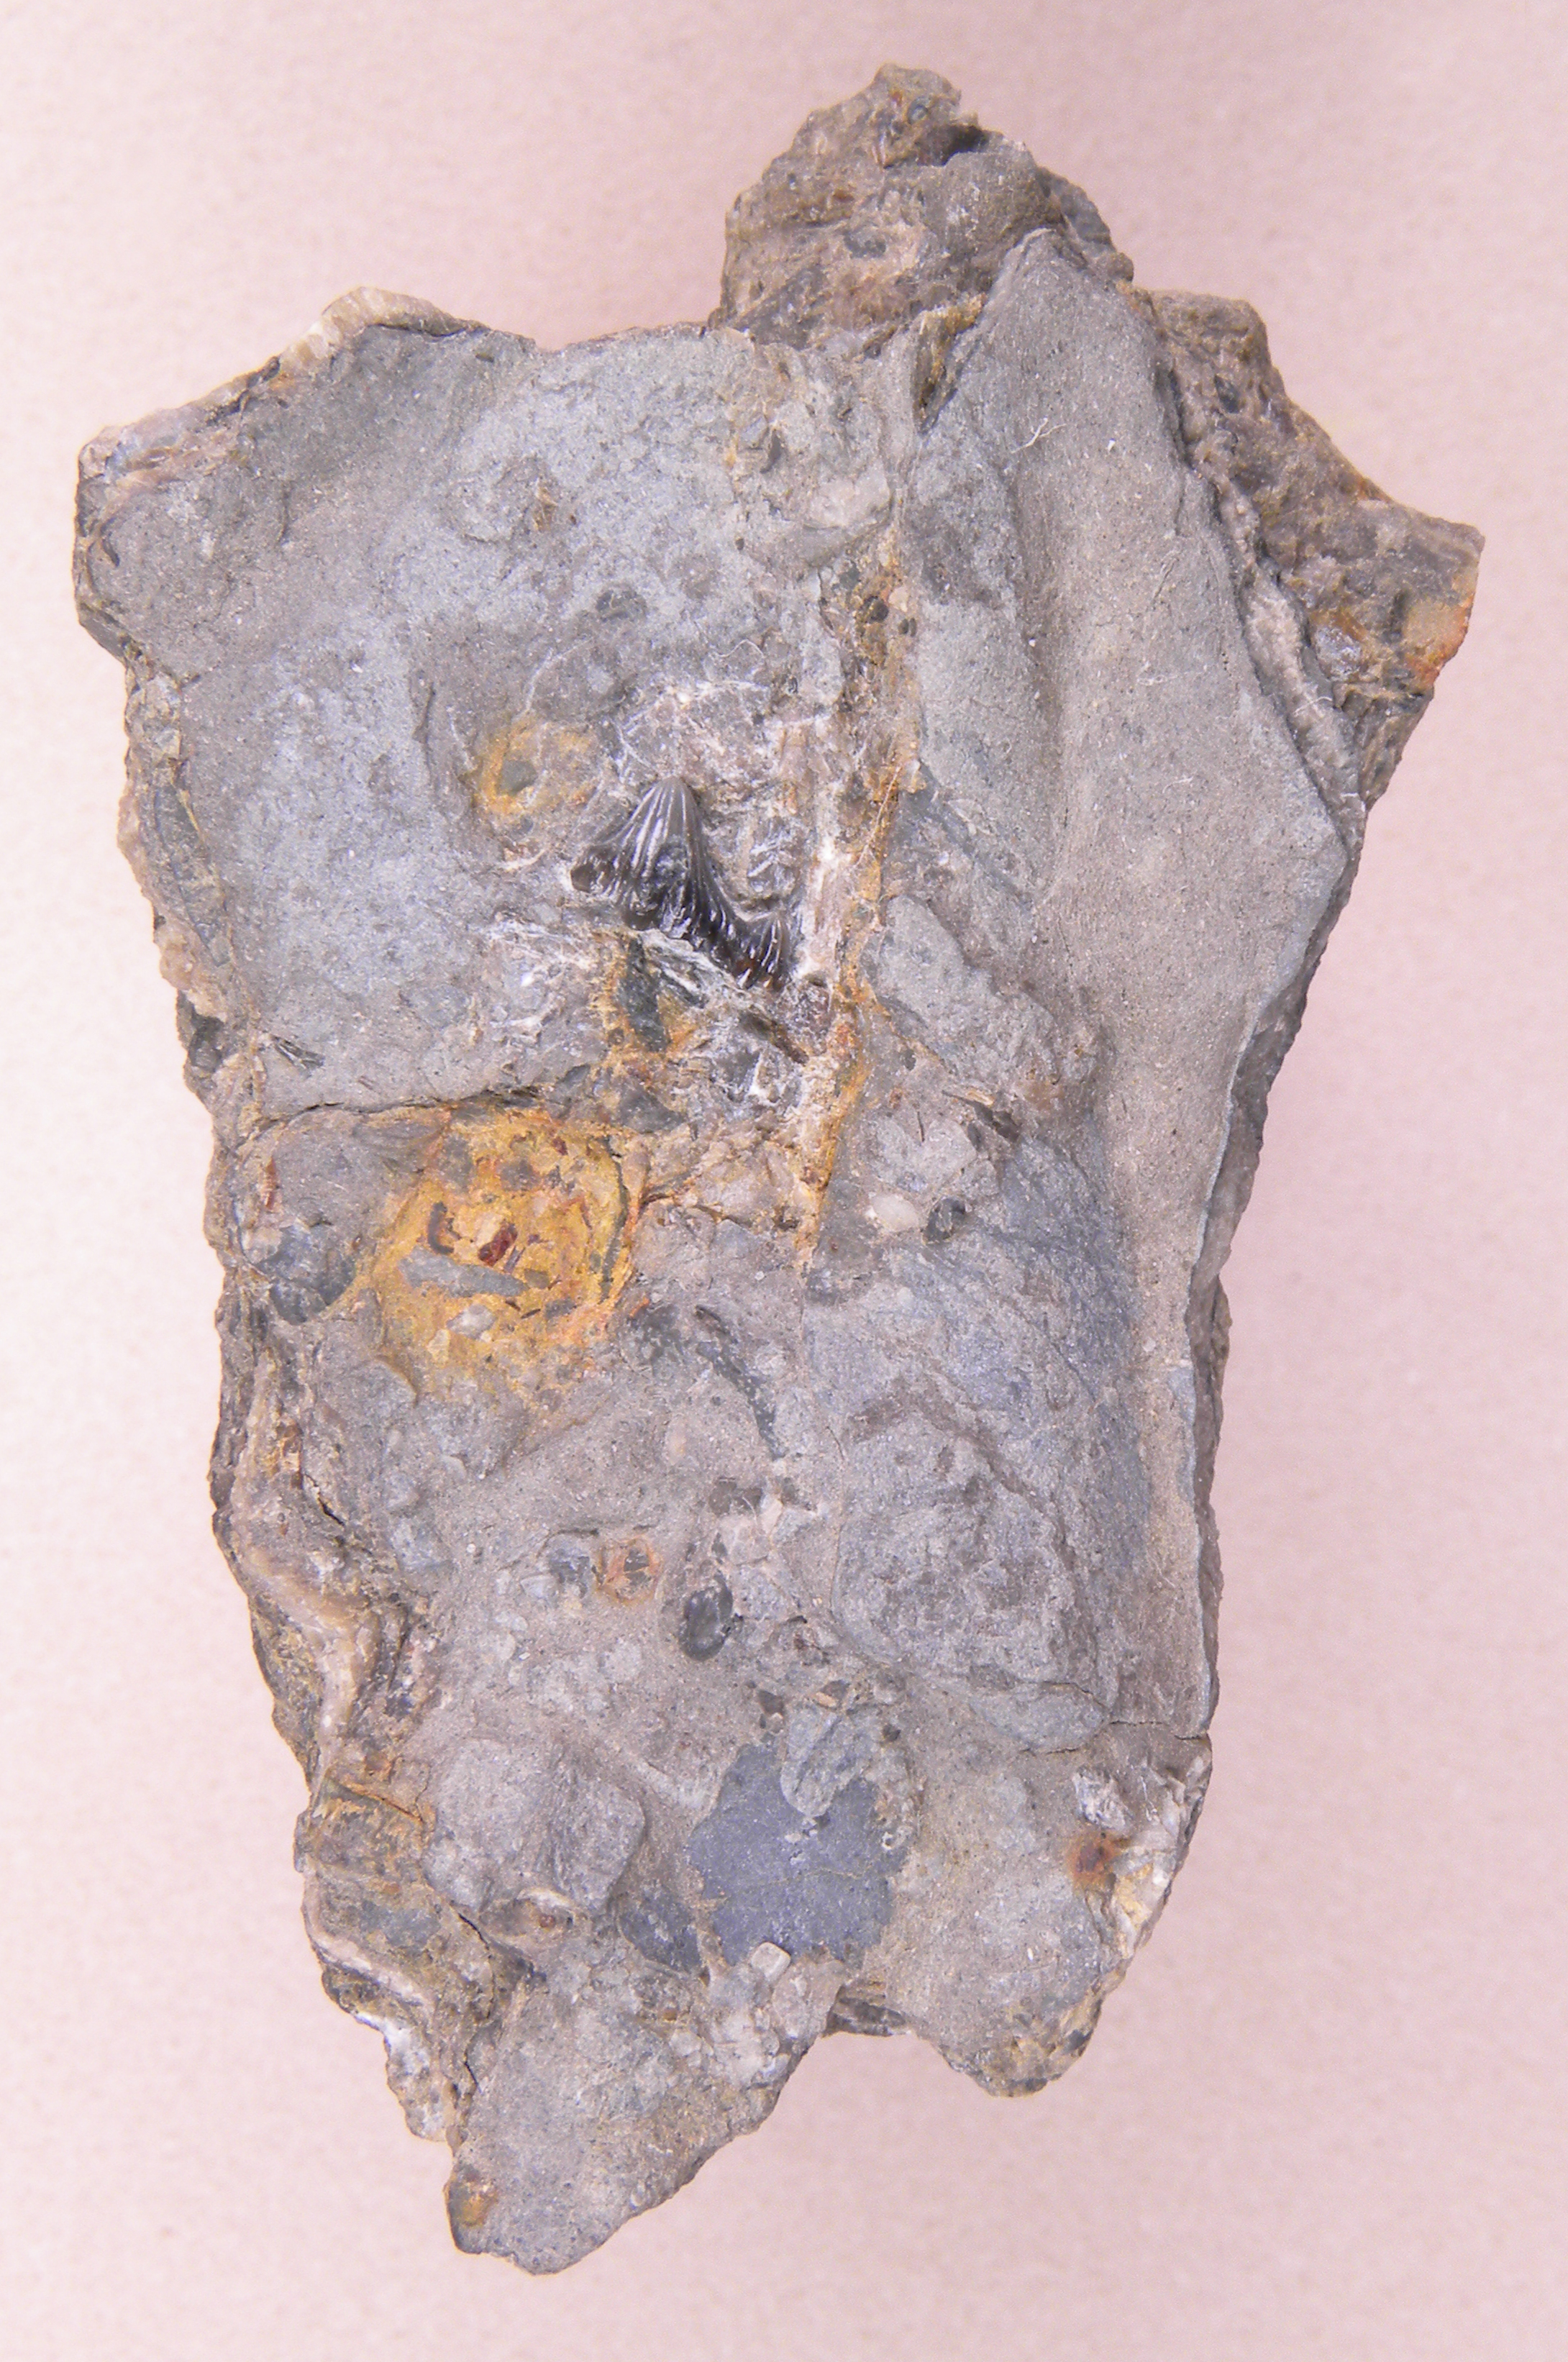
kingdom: Animalia
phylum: Chordata
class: Elasmobranchii
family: Hybodontidae
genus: Hybodus
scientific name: Hybodus
